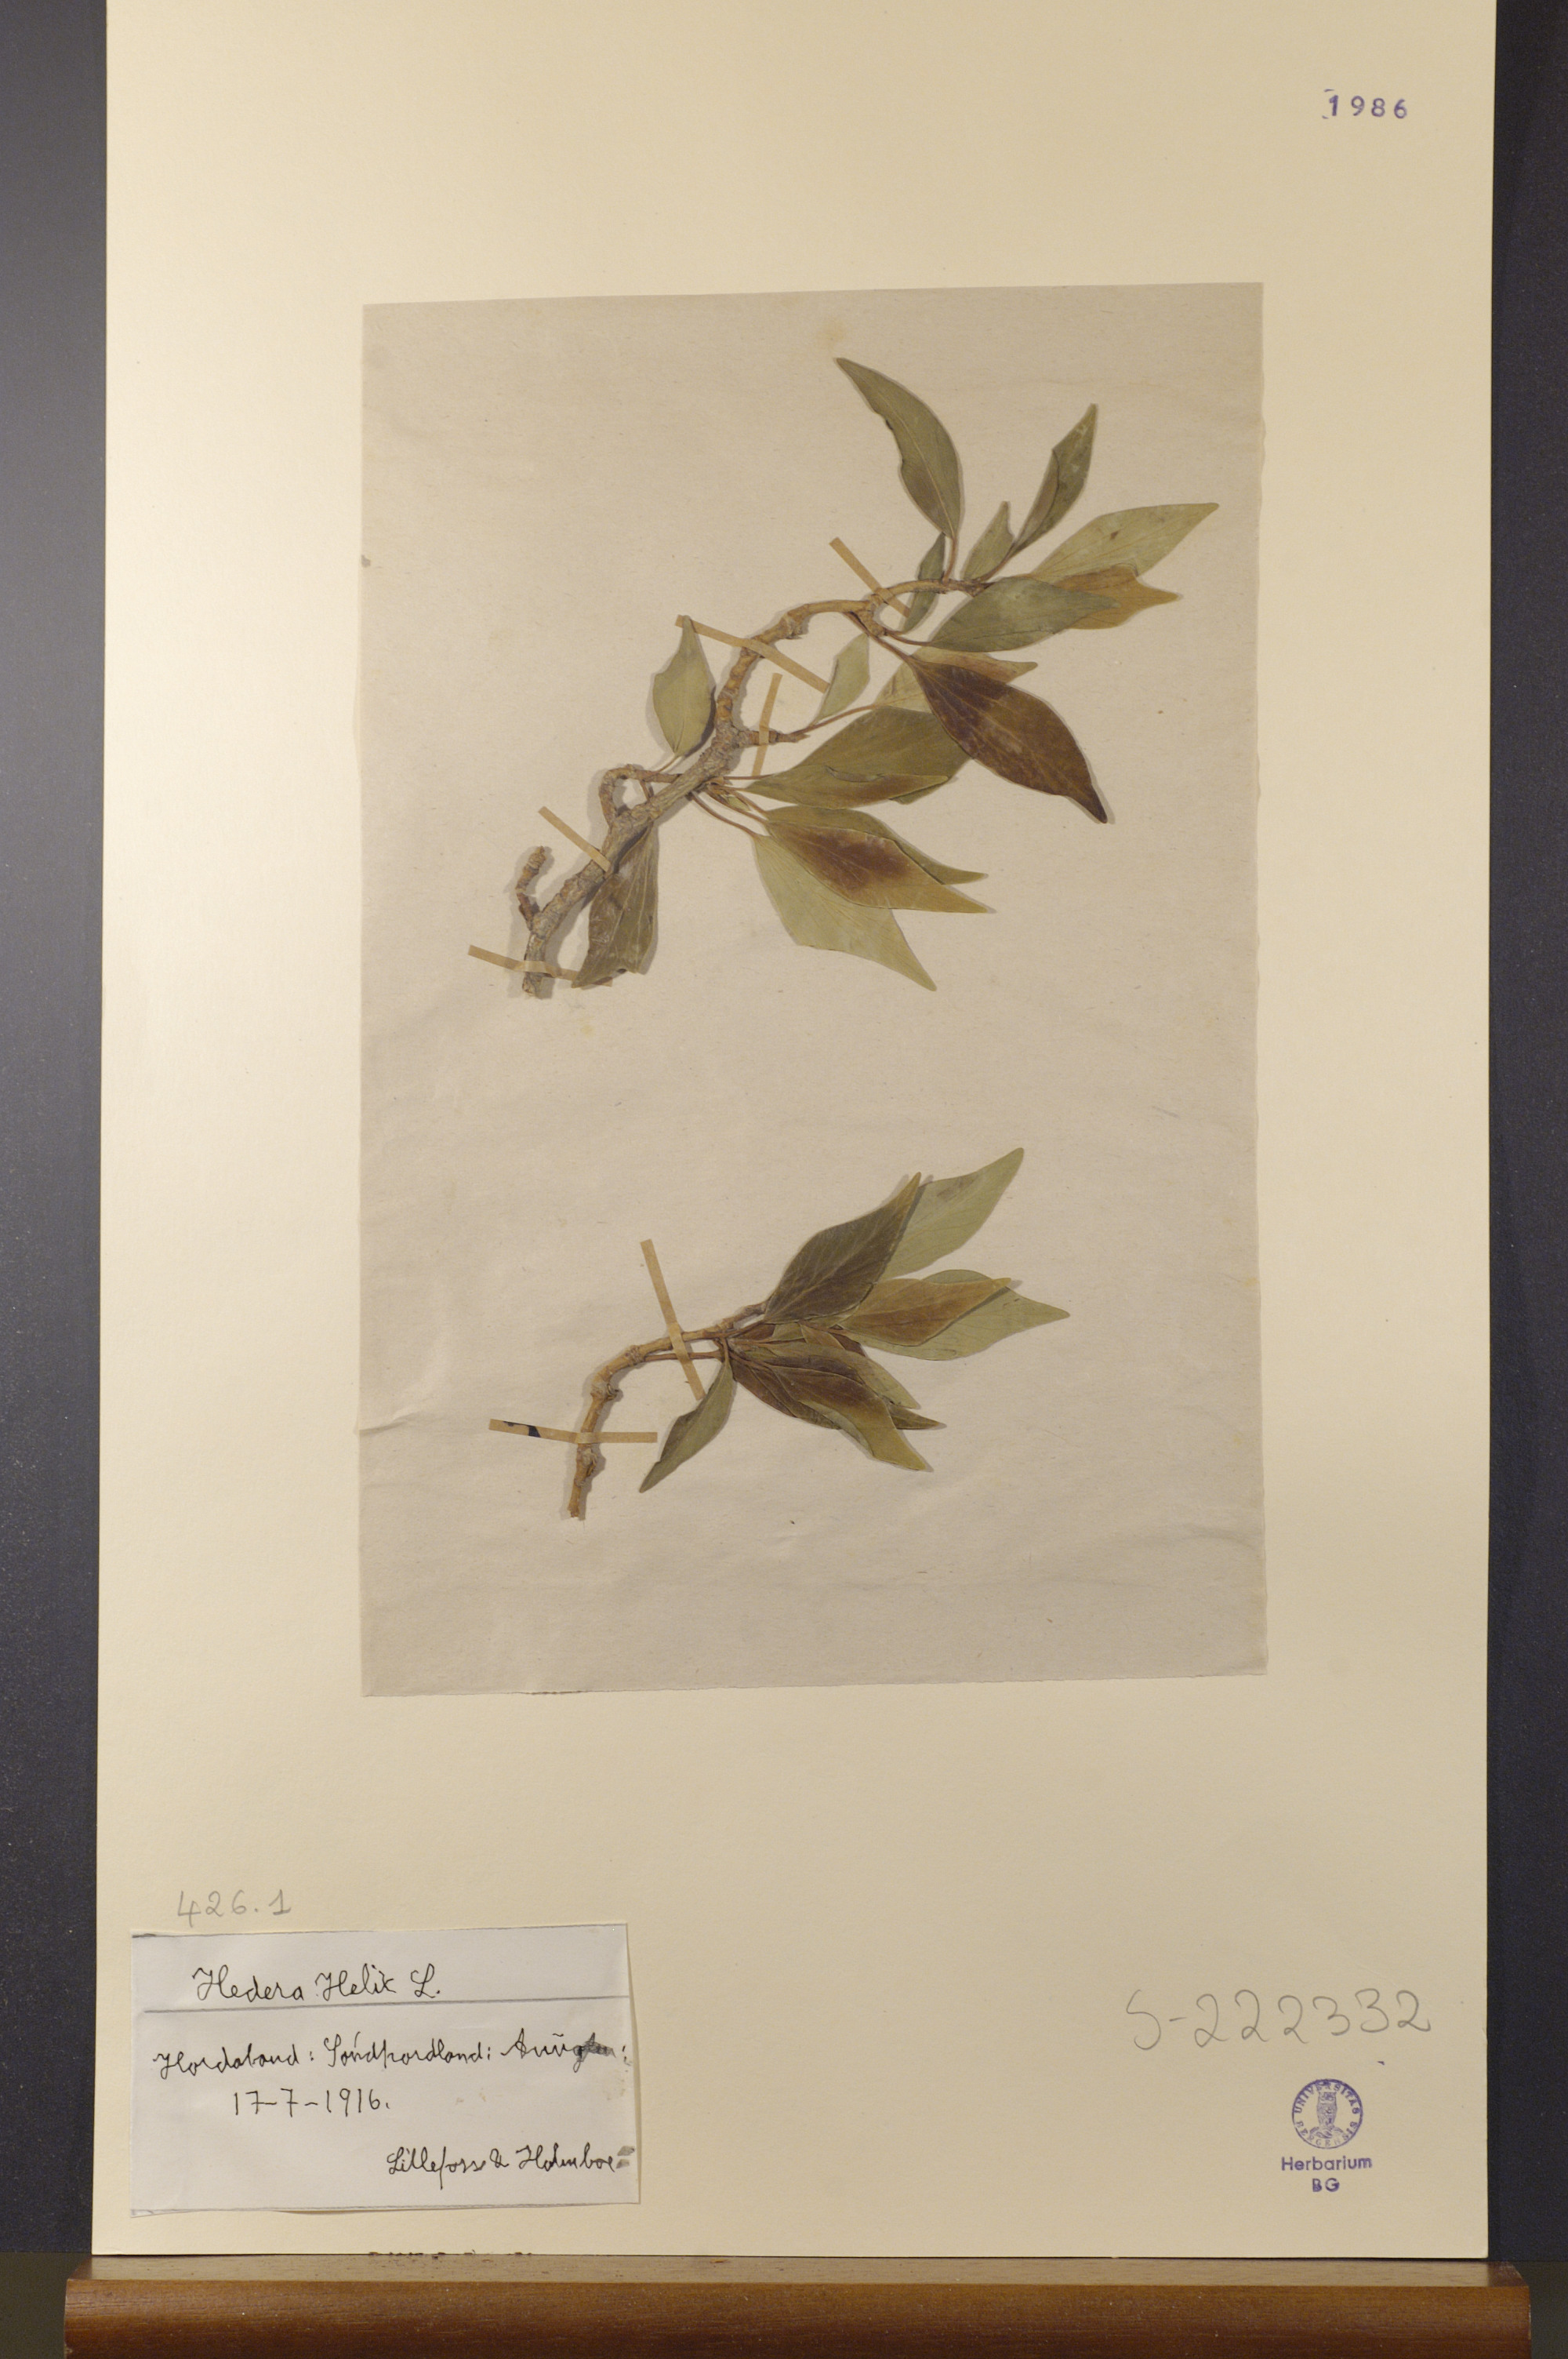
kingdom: Plantae
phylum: Tracheophyta
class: Magnoliopsida
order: Apiales
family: Araliaceae
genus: Hedera
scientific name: Hedera helix
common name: Ivy
